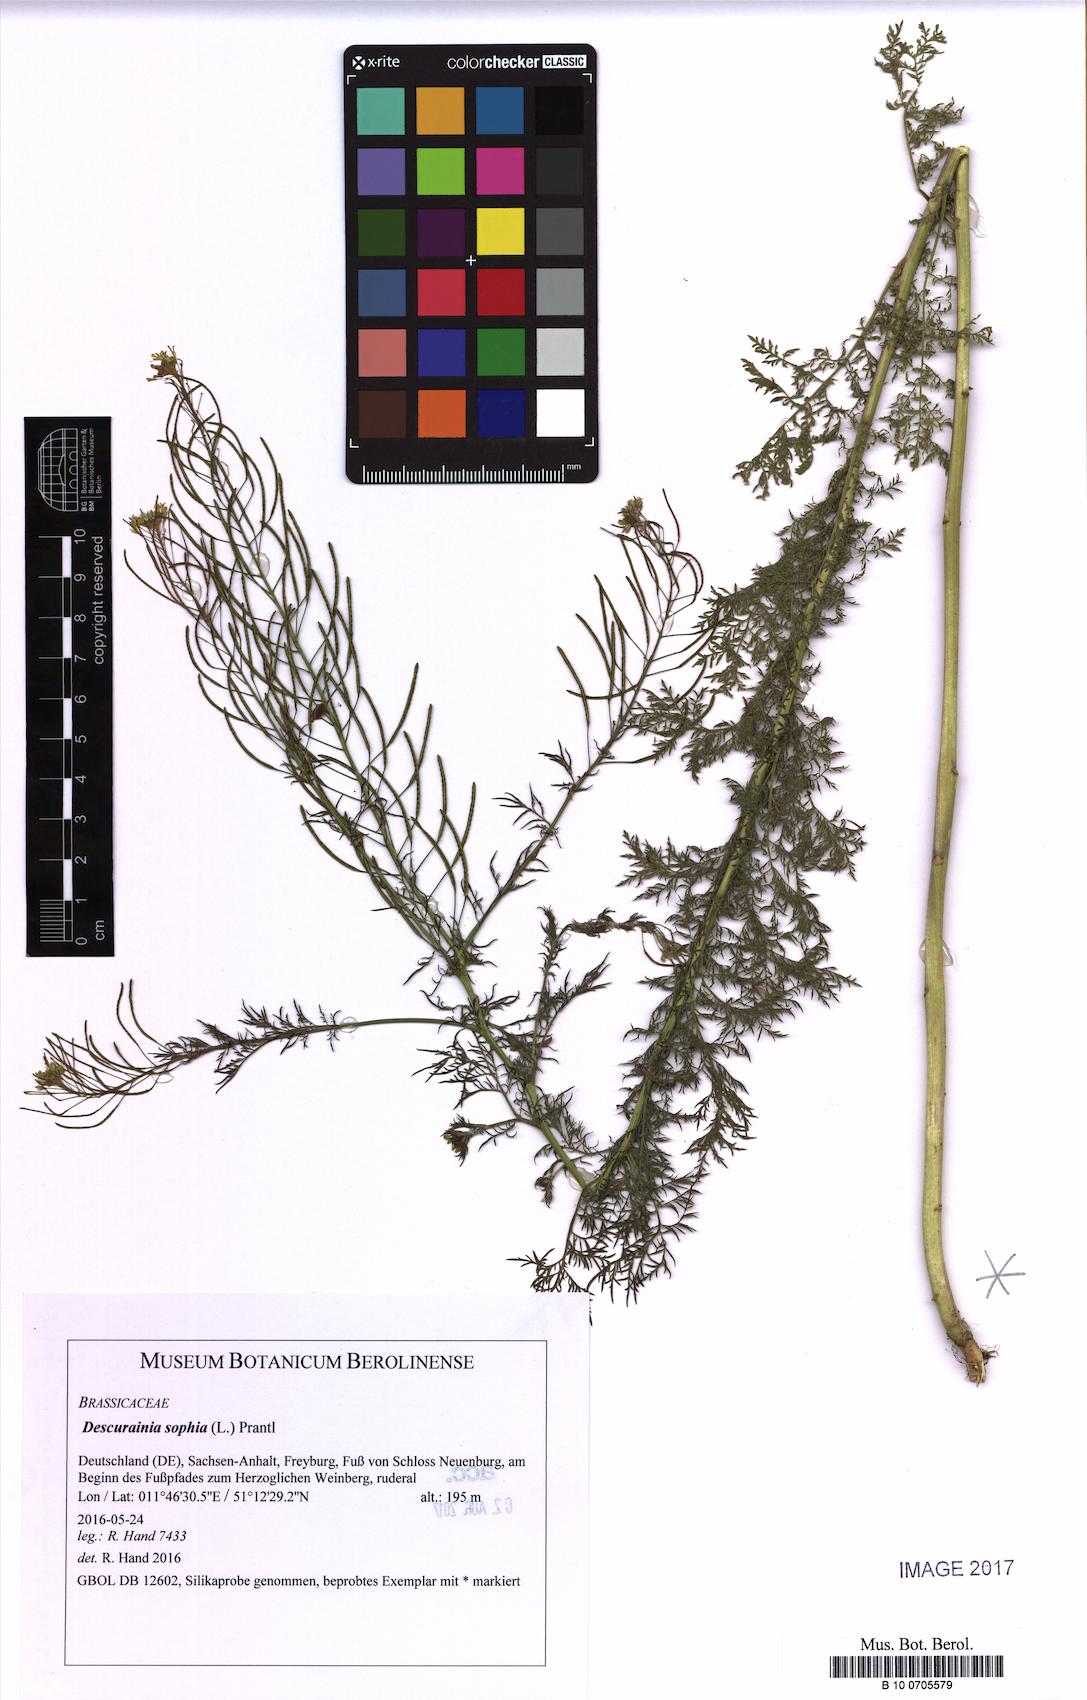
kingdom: Plantae
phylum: Tracheophyta
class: Magnoliopsida
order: Brassicales
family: Brassicaceae
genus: Descurainia
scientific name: Descurainia sophia
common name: Flixweed
